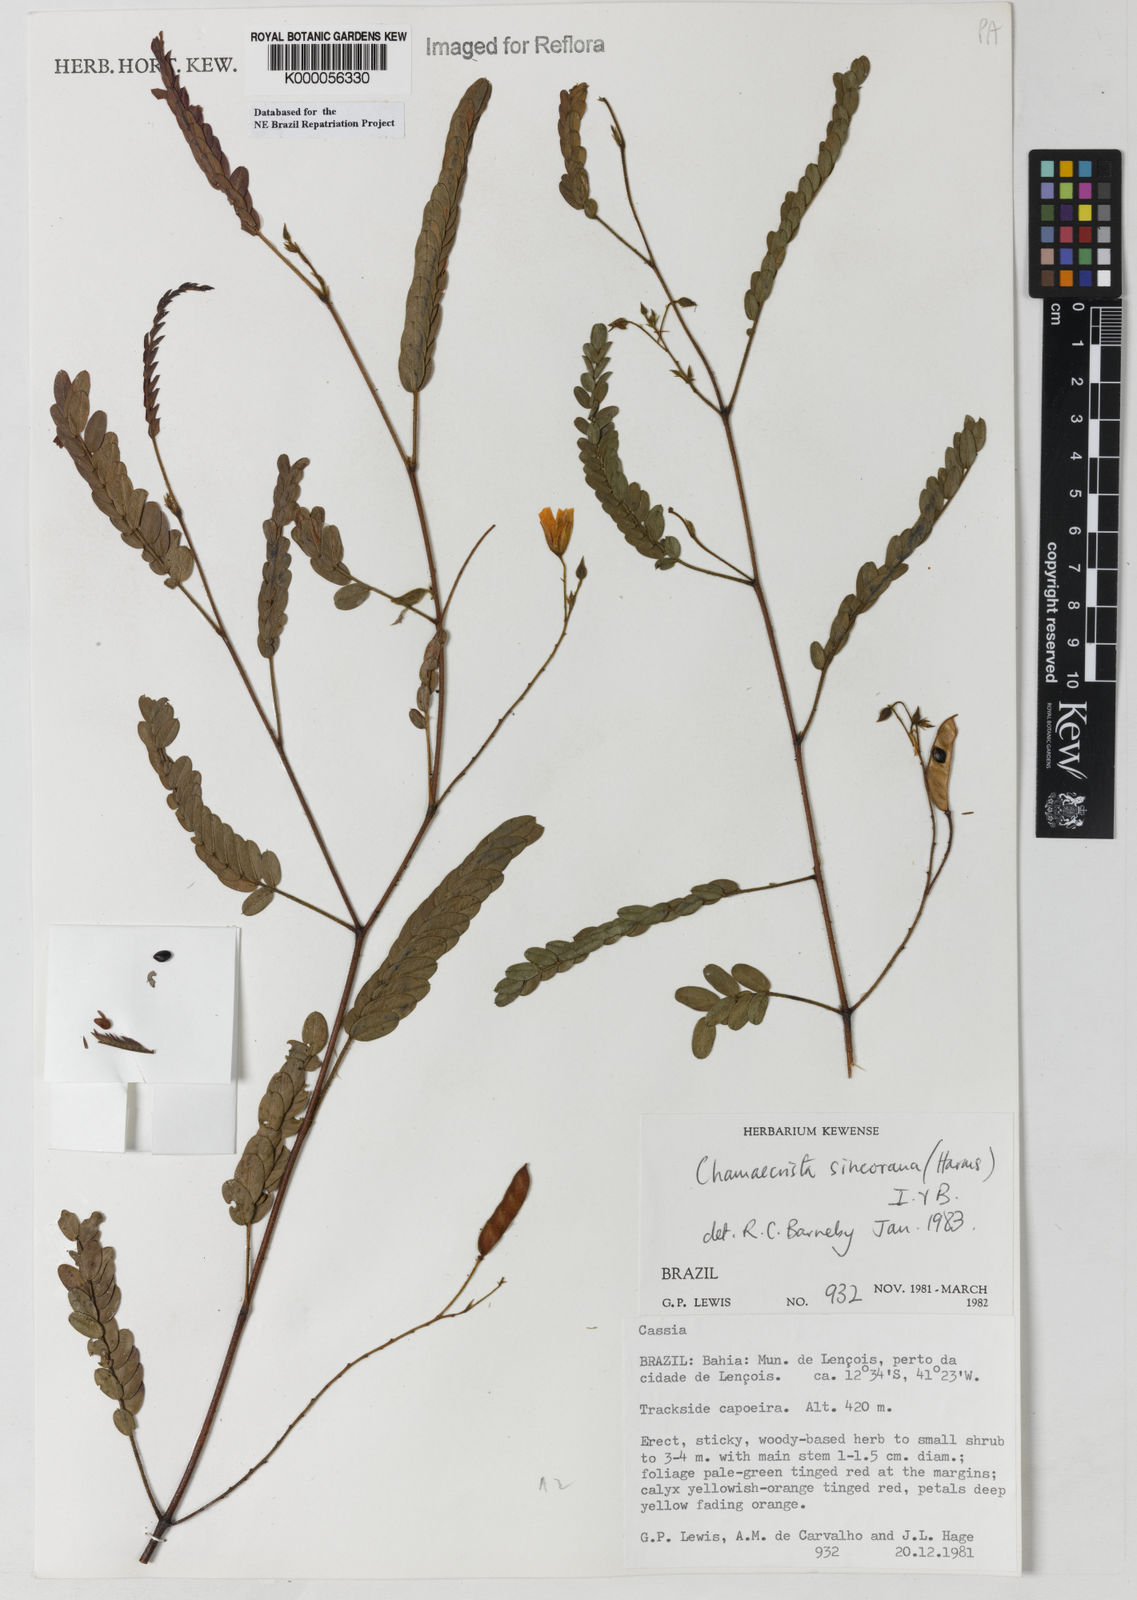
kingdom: Plantae
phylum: Tracheophyta
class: Magnoliopsida
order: Fabales
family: Fabaceae
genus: Chamaecrista
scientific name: Chamaecrista sincorana
